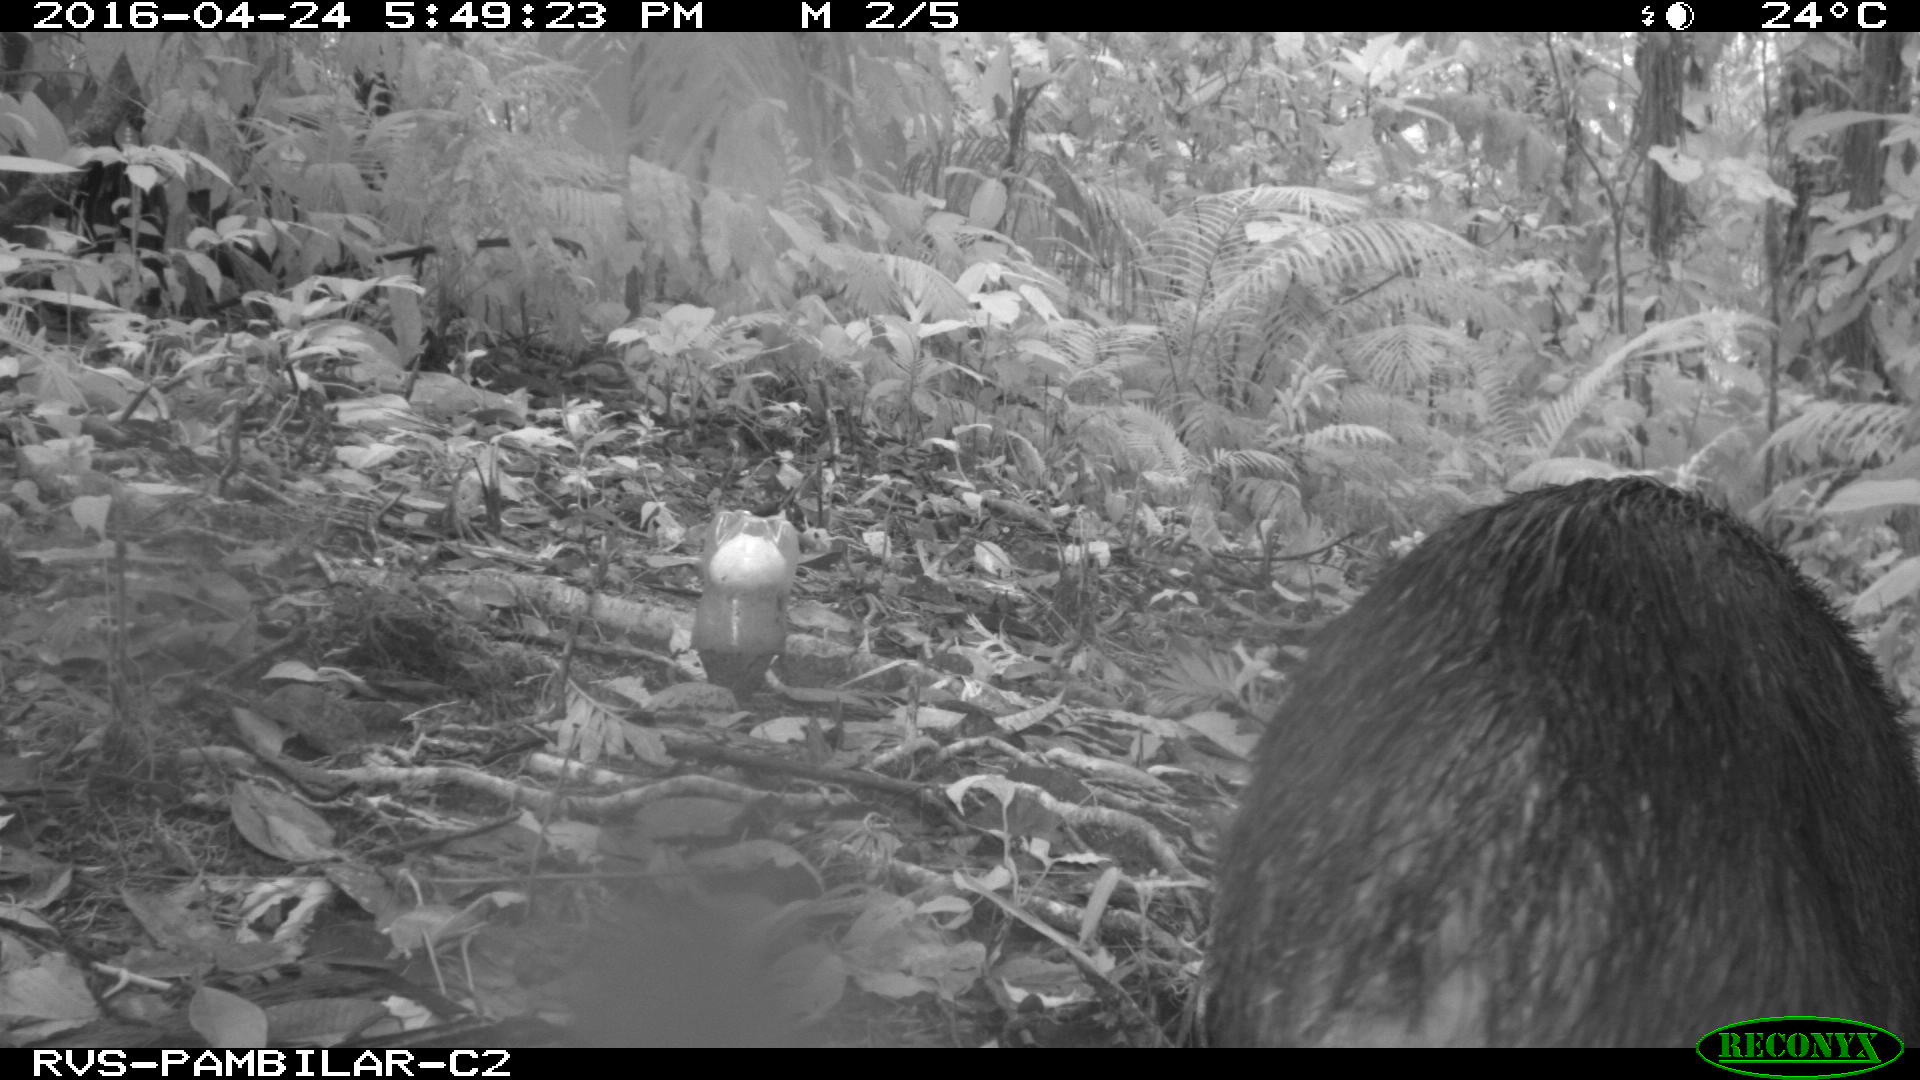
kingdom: Animalia
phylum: Chordata
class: Mammalia
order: Artiodactyla
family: Tayassuidae
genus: Tayassu
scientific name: Tayassu pecari
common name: White-lipped peccary
